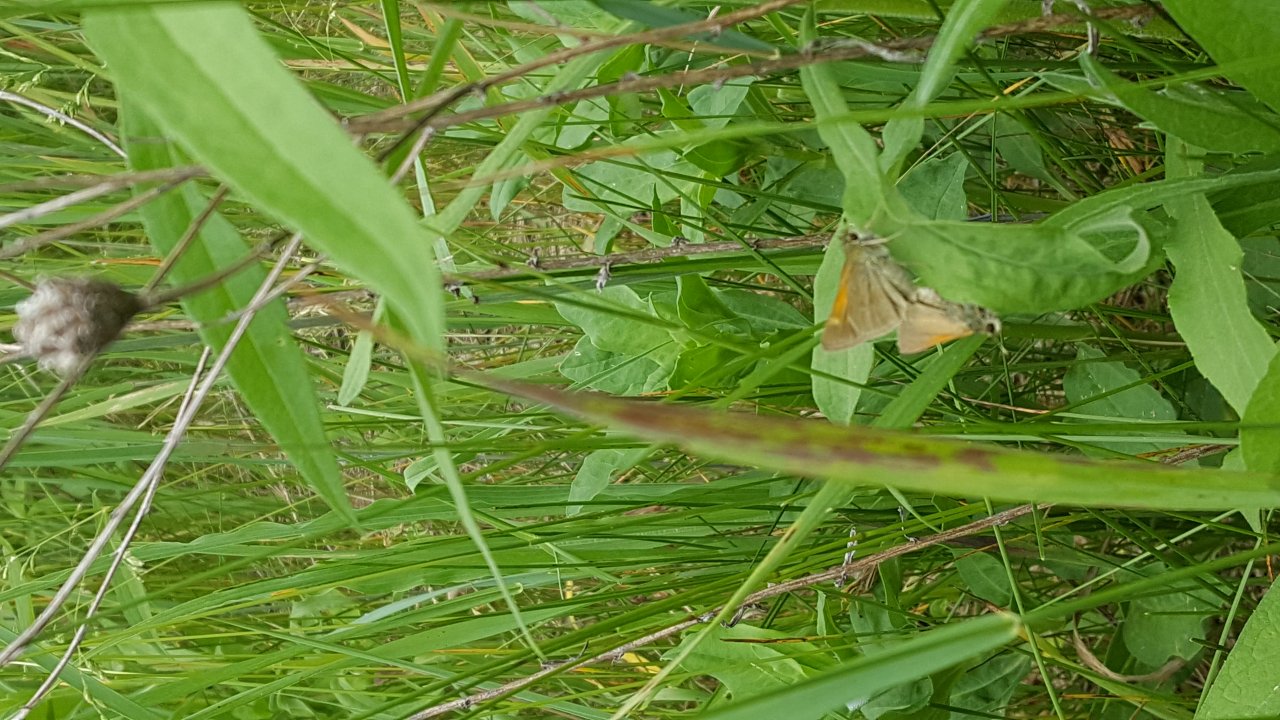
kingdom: Animalia
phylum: Arthropoda
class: Insecta
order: Lepidoptera
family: Hesperiidae
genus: Polites
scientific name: Polites themistocles
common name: Tawny-edged Skipper
